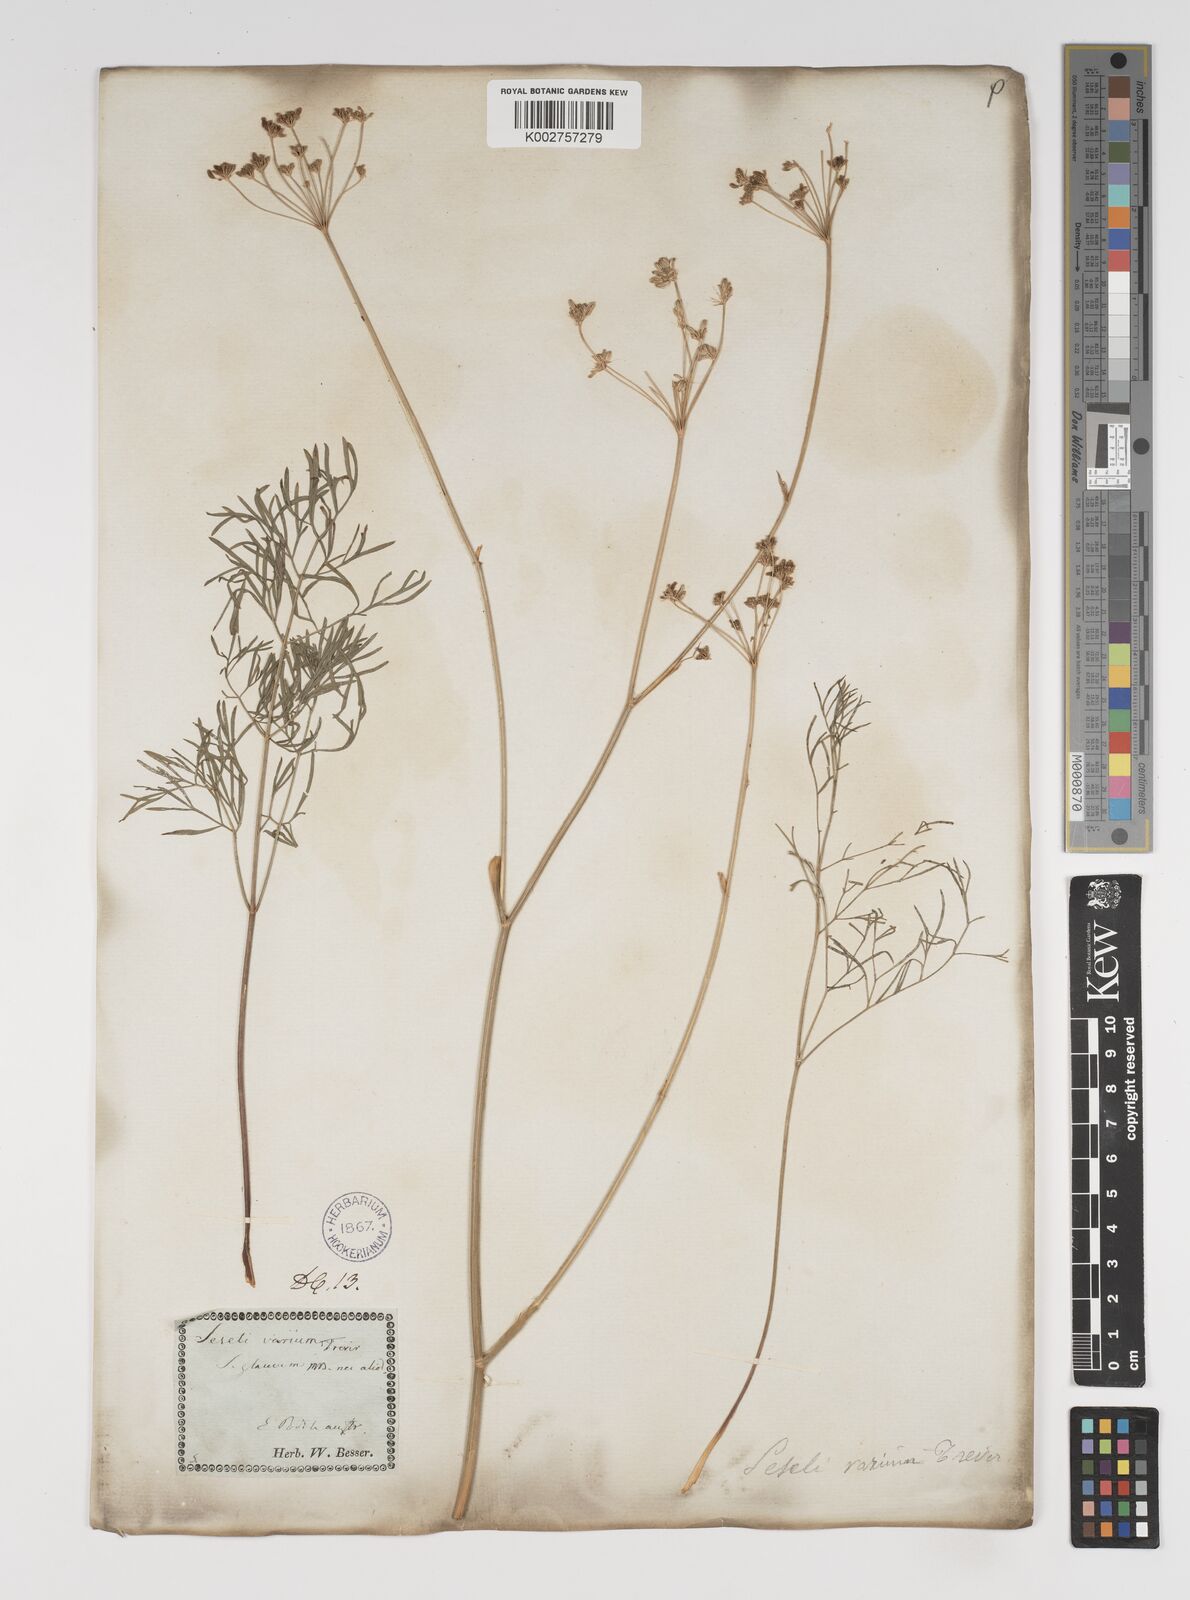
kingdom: Plantae
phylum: Tracheophyta
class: Magnoliopsida
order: Apiales
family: Apiaceae
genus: Seseli
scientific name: Seseli pallasii
